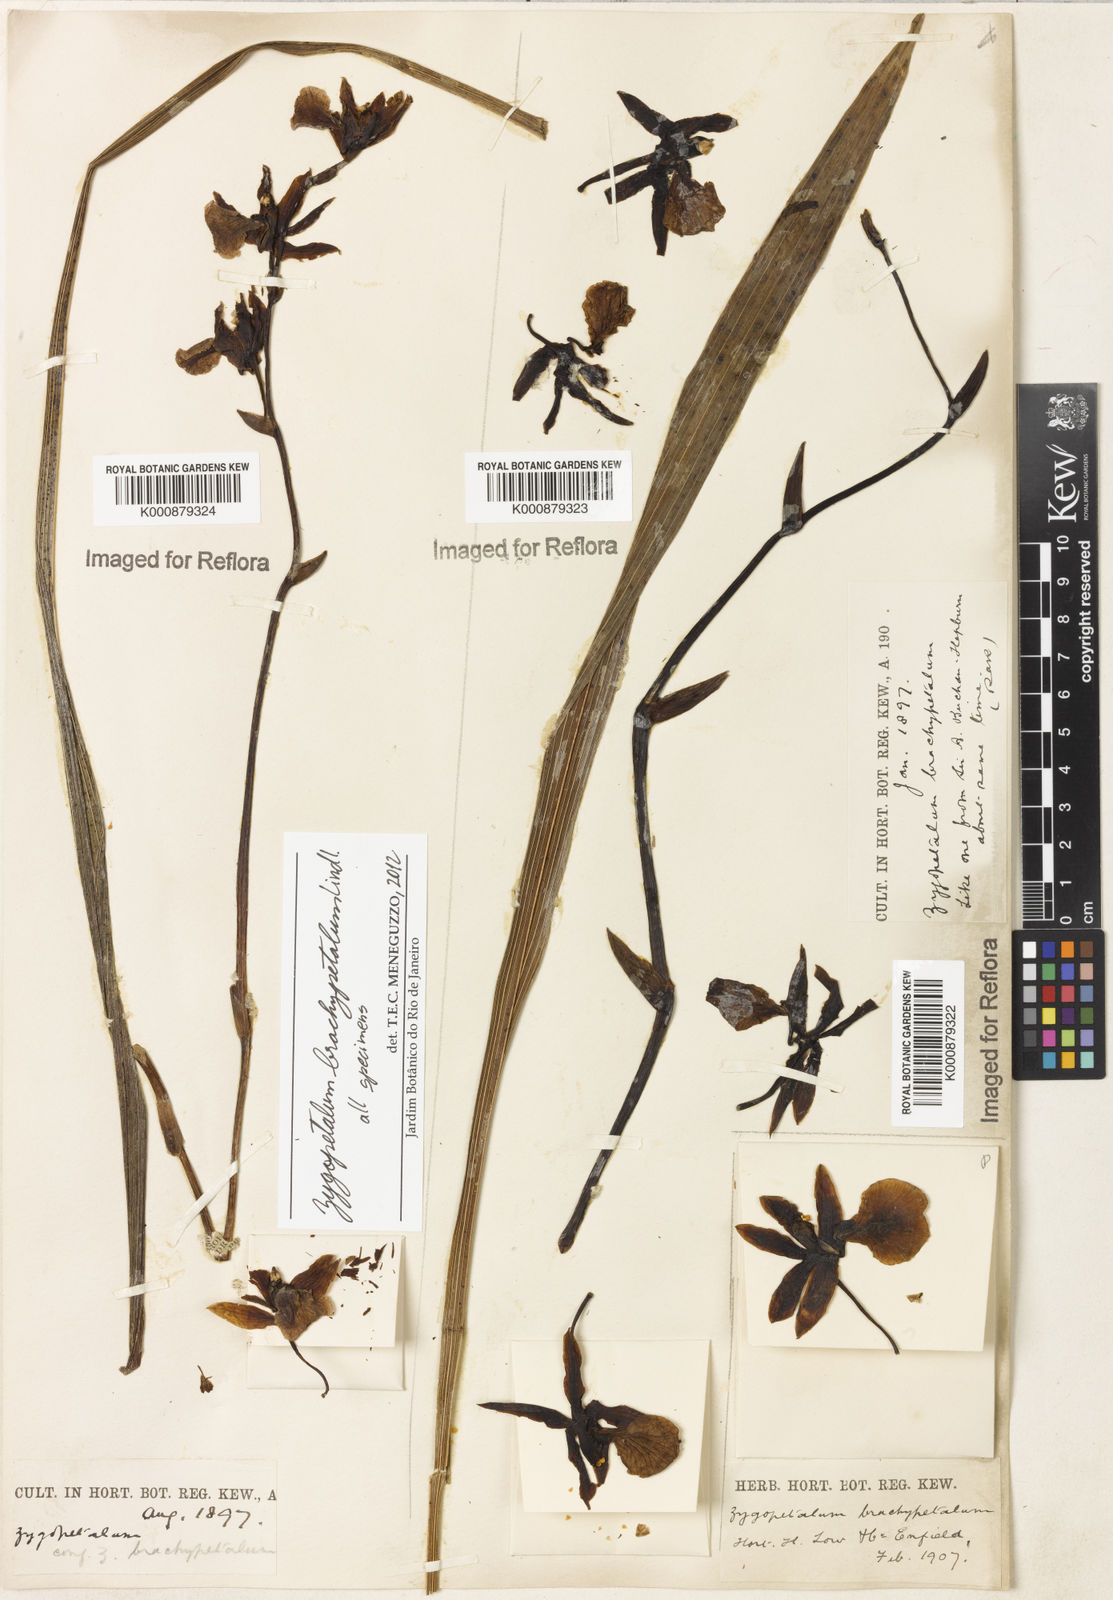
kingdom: Plantae
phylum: Tracheophyta
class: Liliopsida
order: Asparagales
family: Orchidaceae
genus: Zygopetalum
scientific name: Zygopetalum brachypetalum
